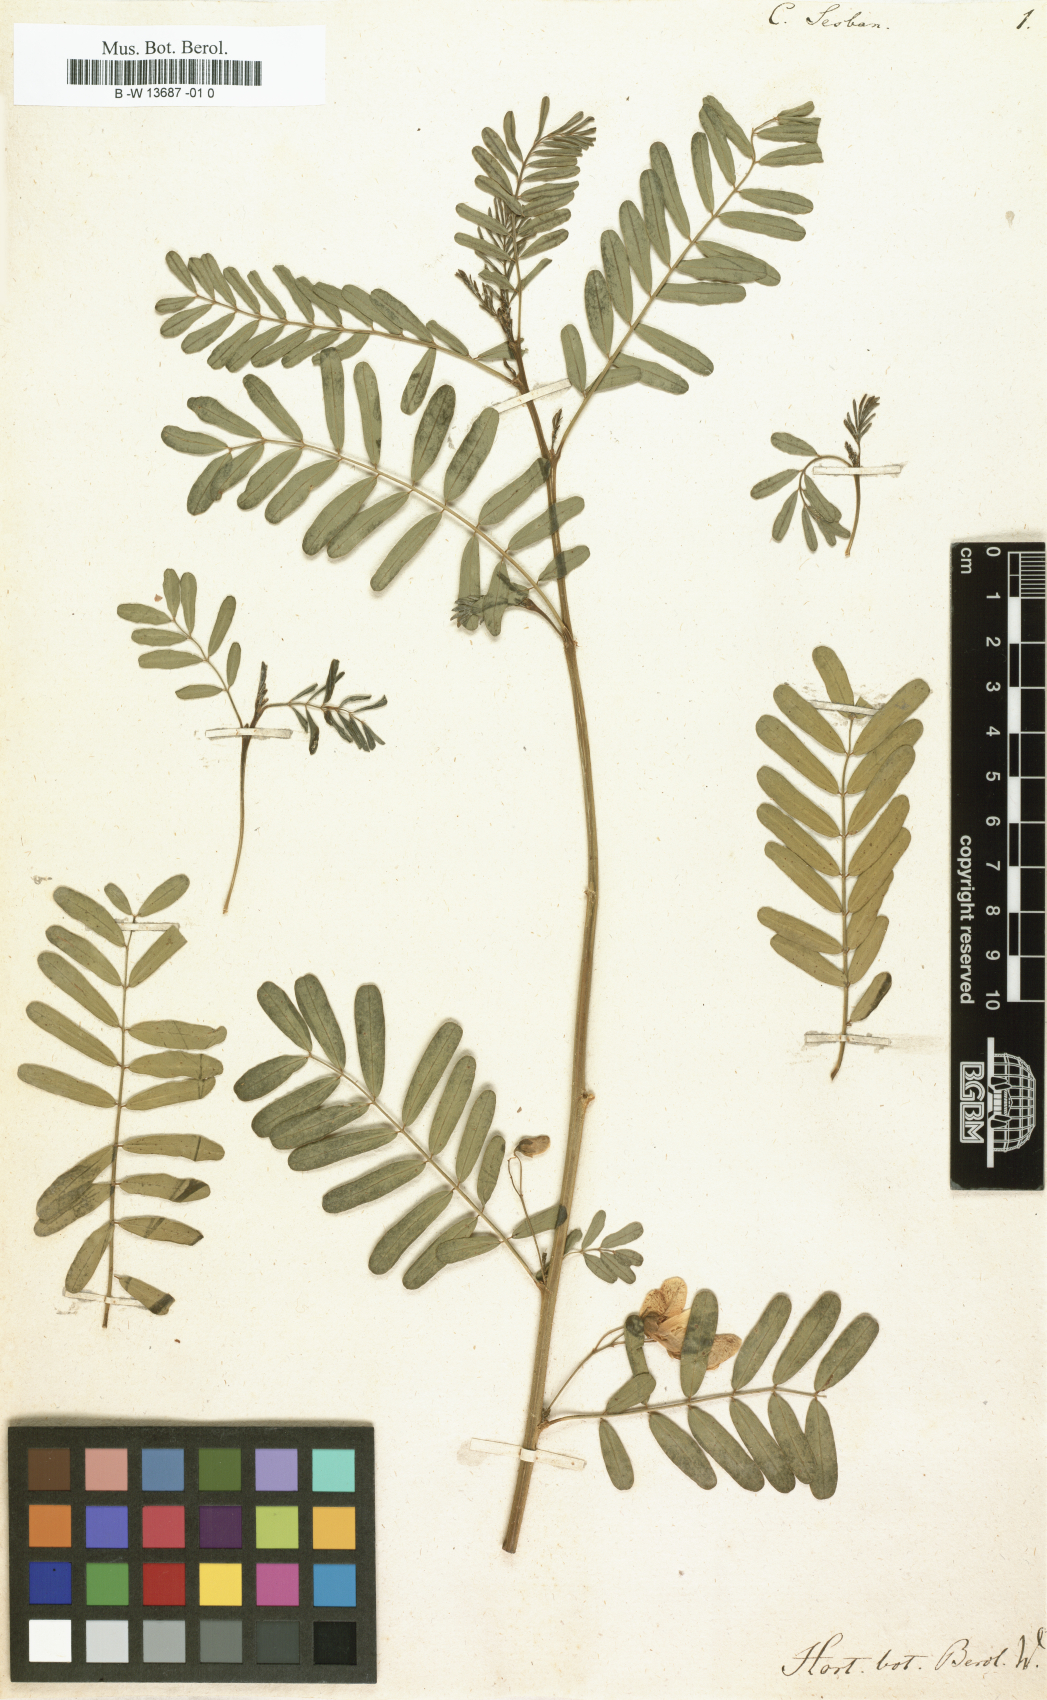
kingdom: Plantae
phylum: Tracheophyta
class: Magnoliopsida
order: Fabales
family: Fabaceae
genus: Sesbania
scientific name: Sesbania sesban
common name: Egyptian sesban
